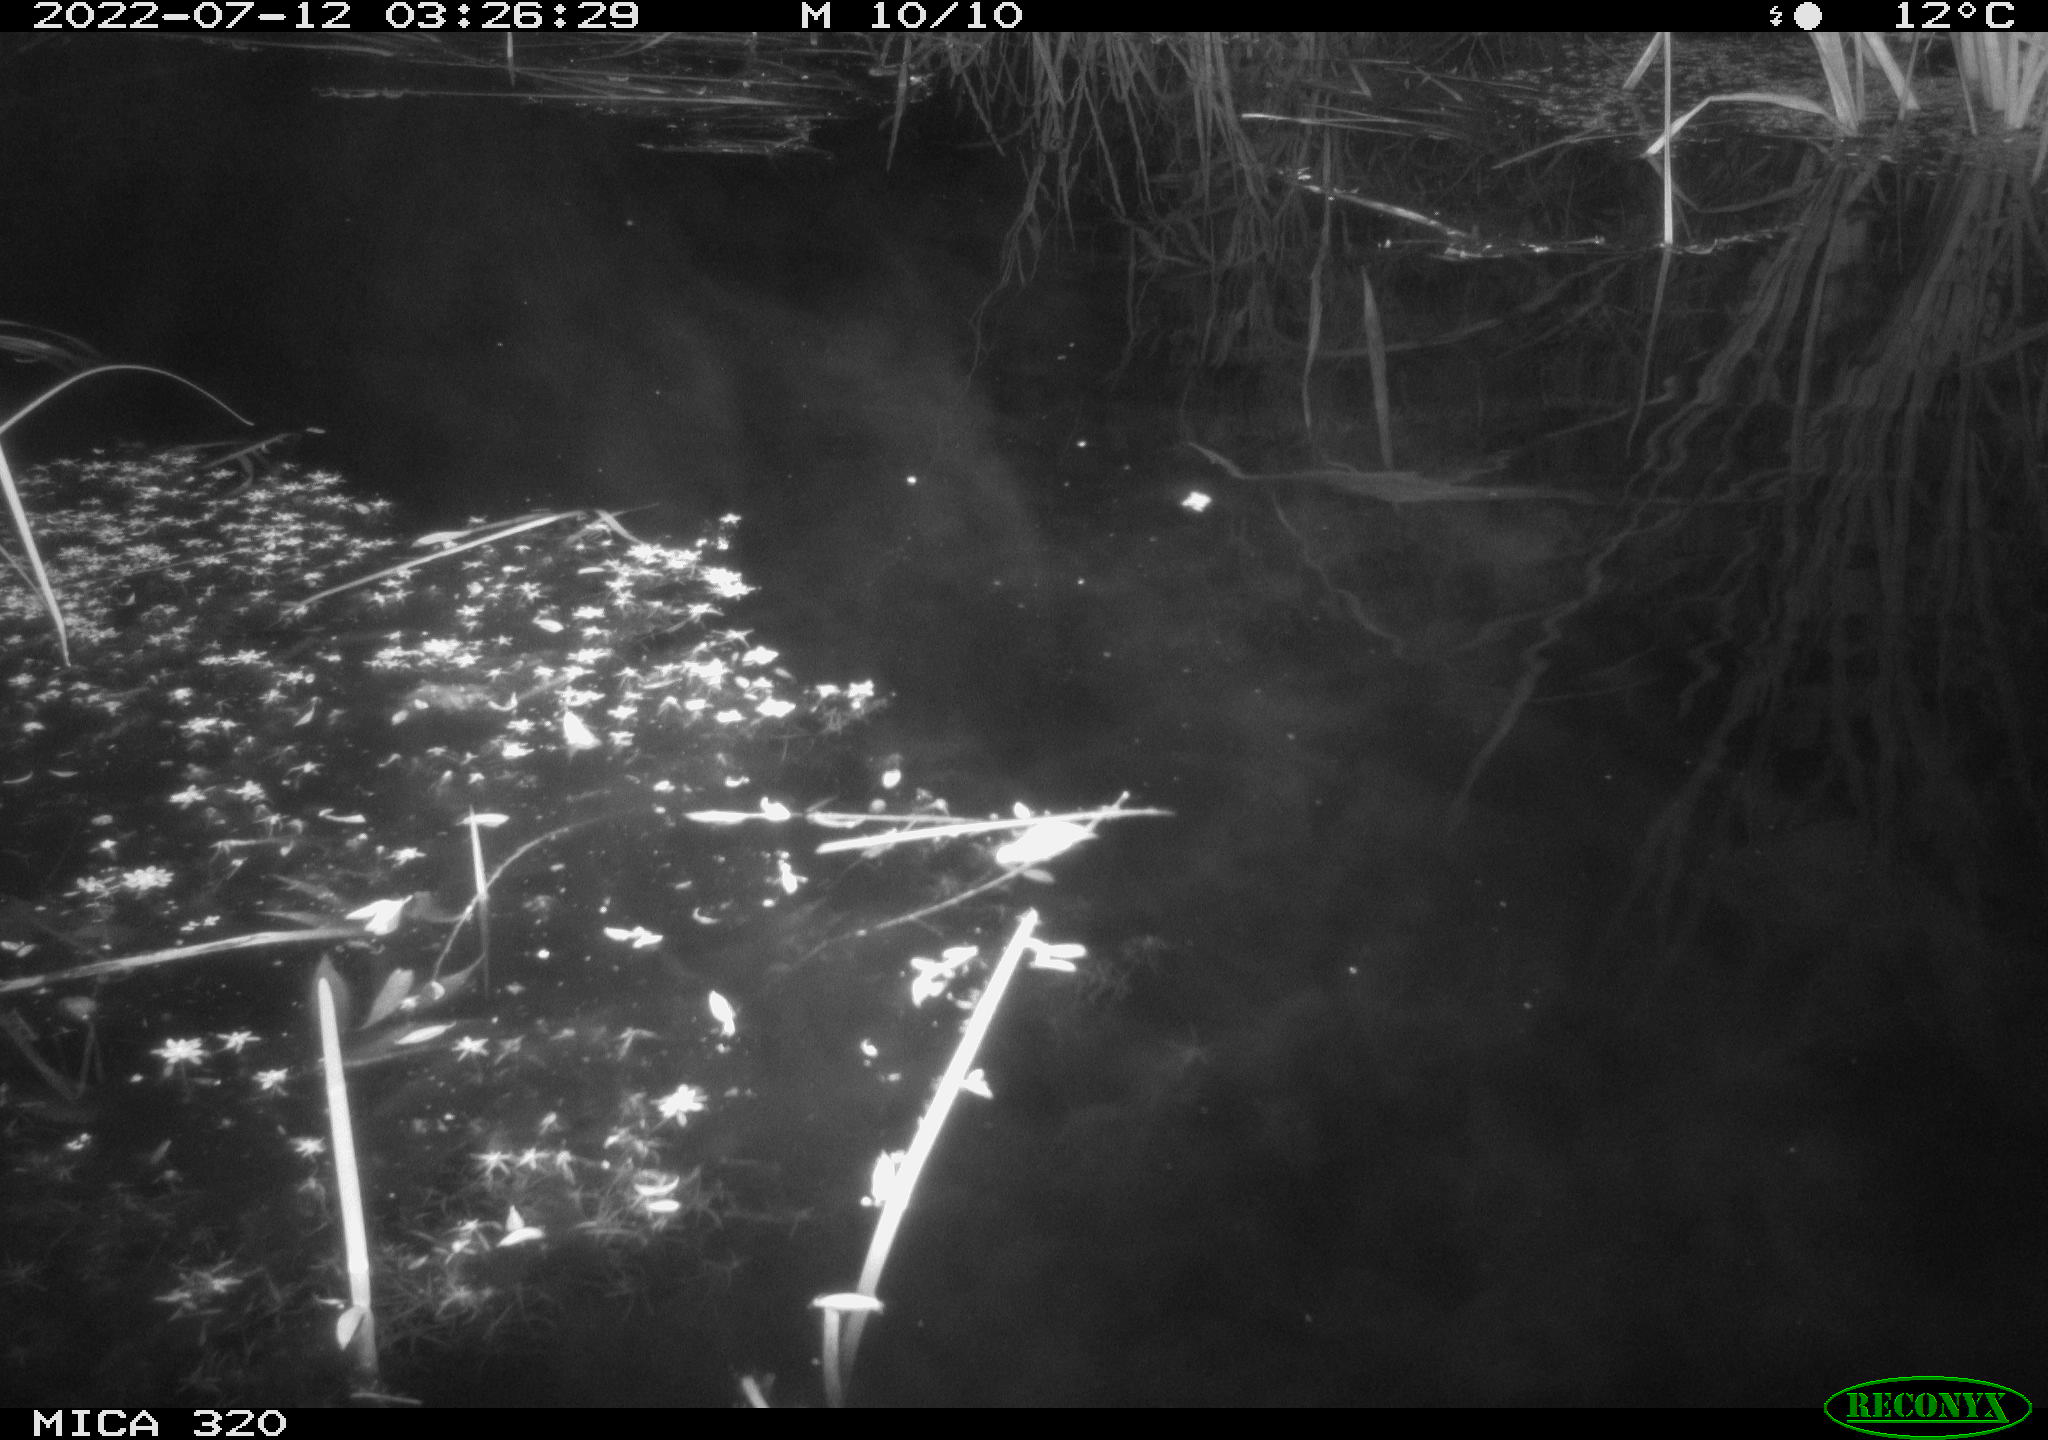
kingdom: Animalia
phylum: Chordata
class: Aves
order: Anseriformes
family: Anatidae
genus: Anas
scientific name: Anas platyrhynchos
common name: Mallard
